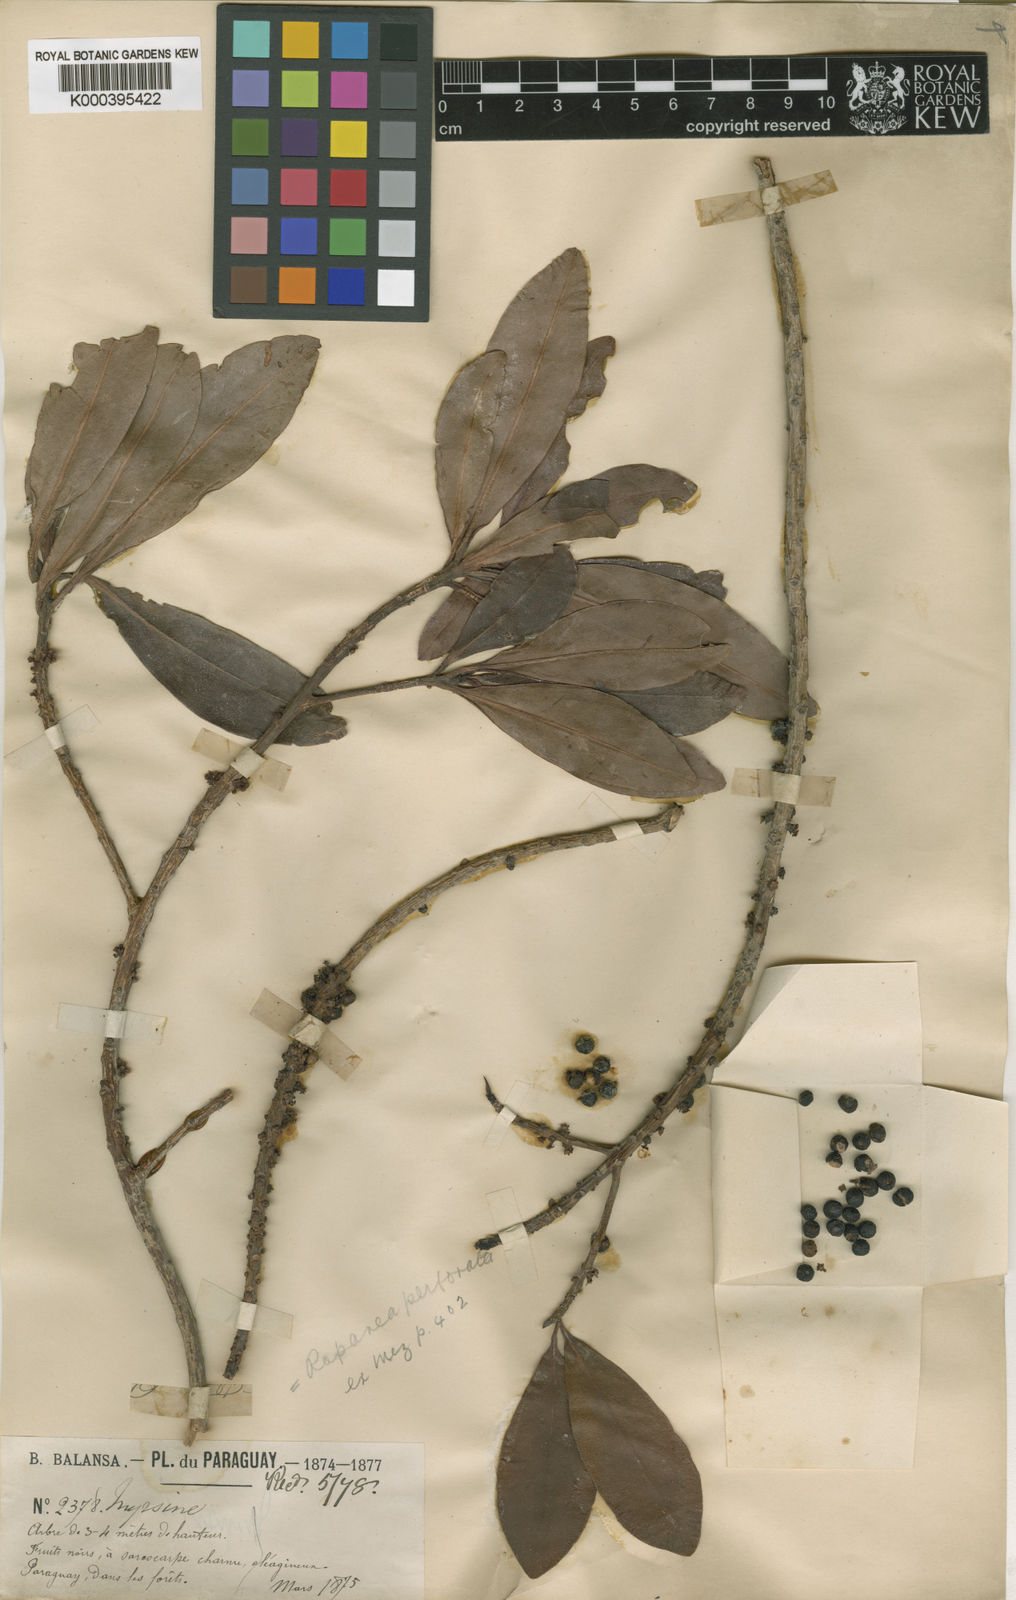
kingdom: Plantae
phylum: Tracheophyta
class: Magnoliopsida
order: Ericales
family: Primulaceae
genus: Myrsine
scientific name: Myrsine matensis
